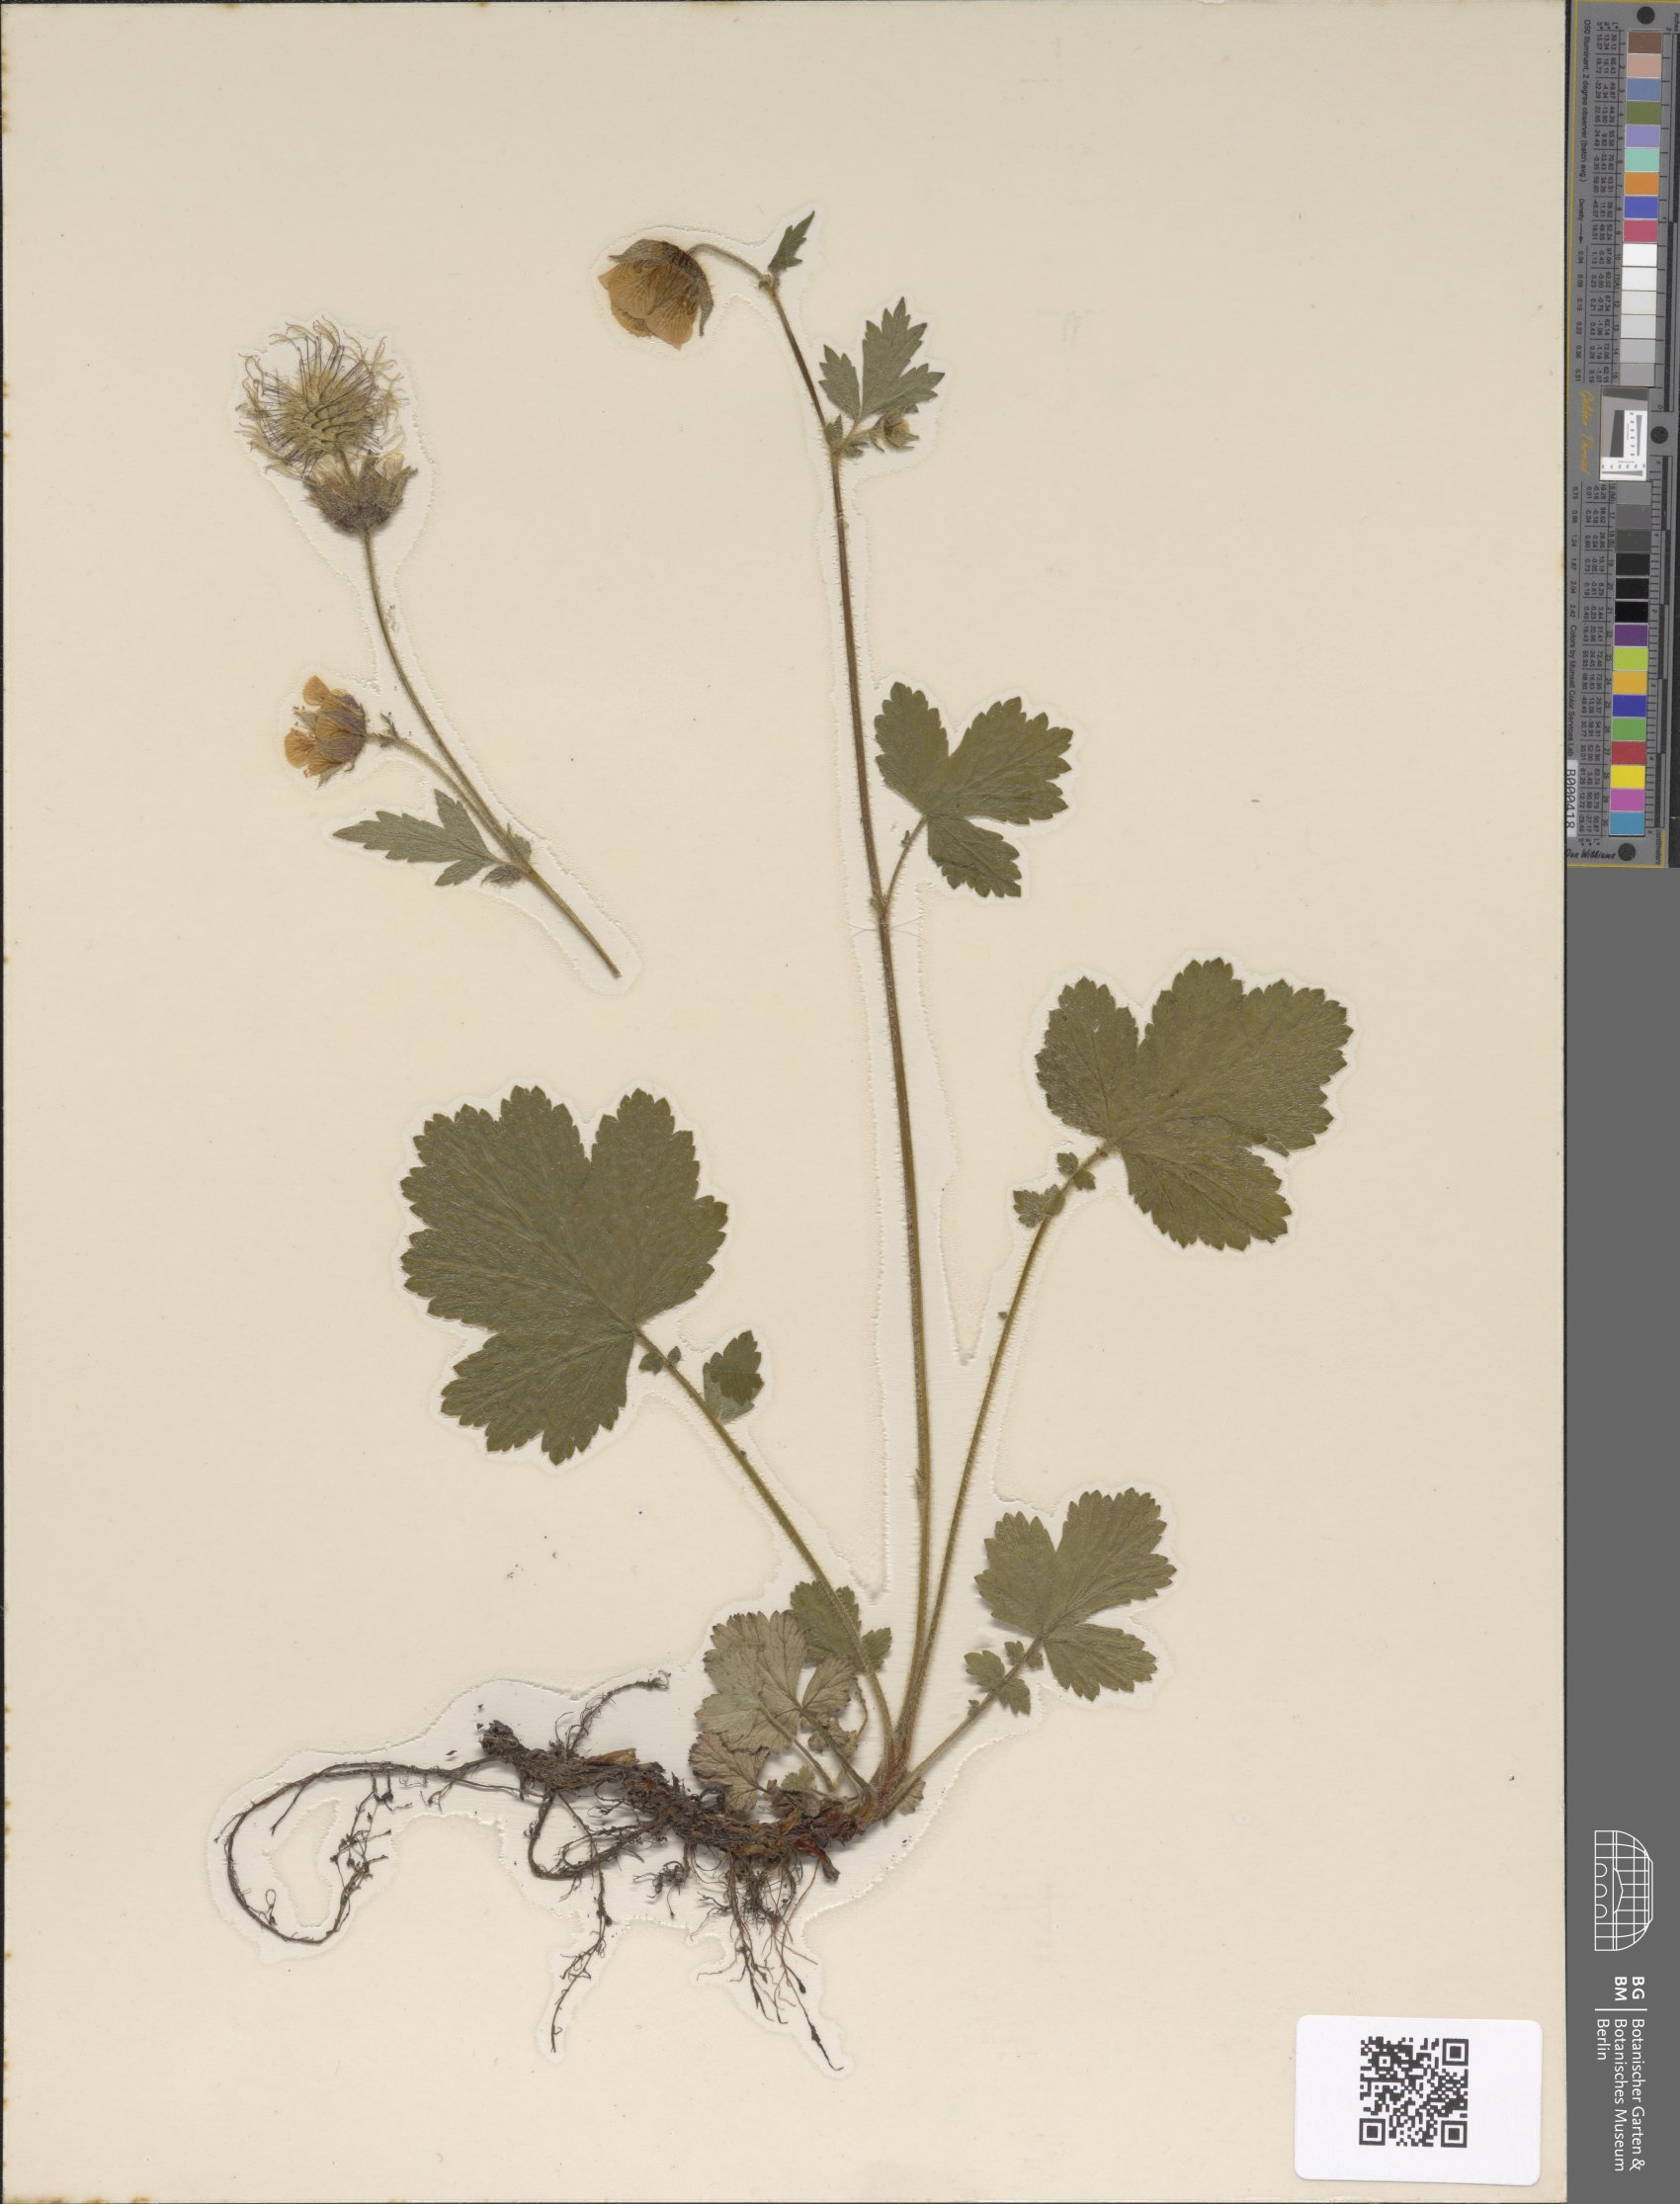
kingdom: Plantae
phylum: Tracheophyta
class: Magnoliopsida
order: Rosales
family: Rosaceae
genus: Geum
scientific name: Geum rivale
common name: Water avens
